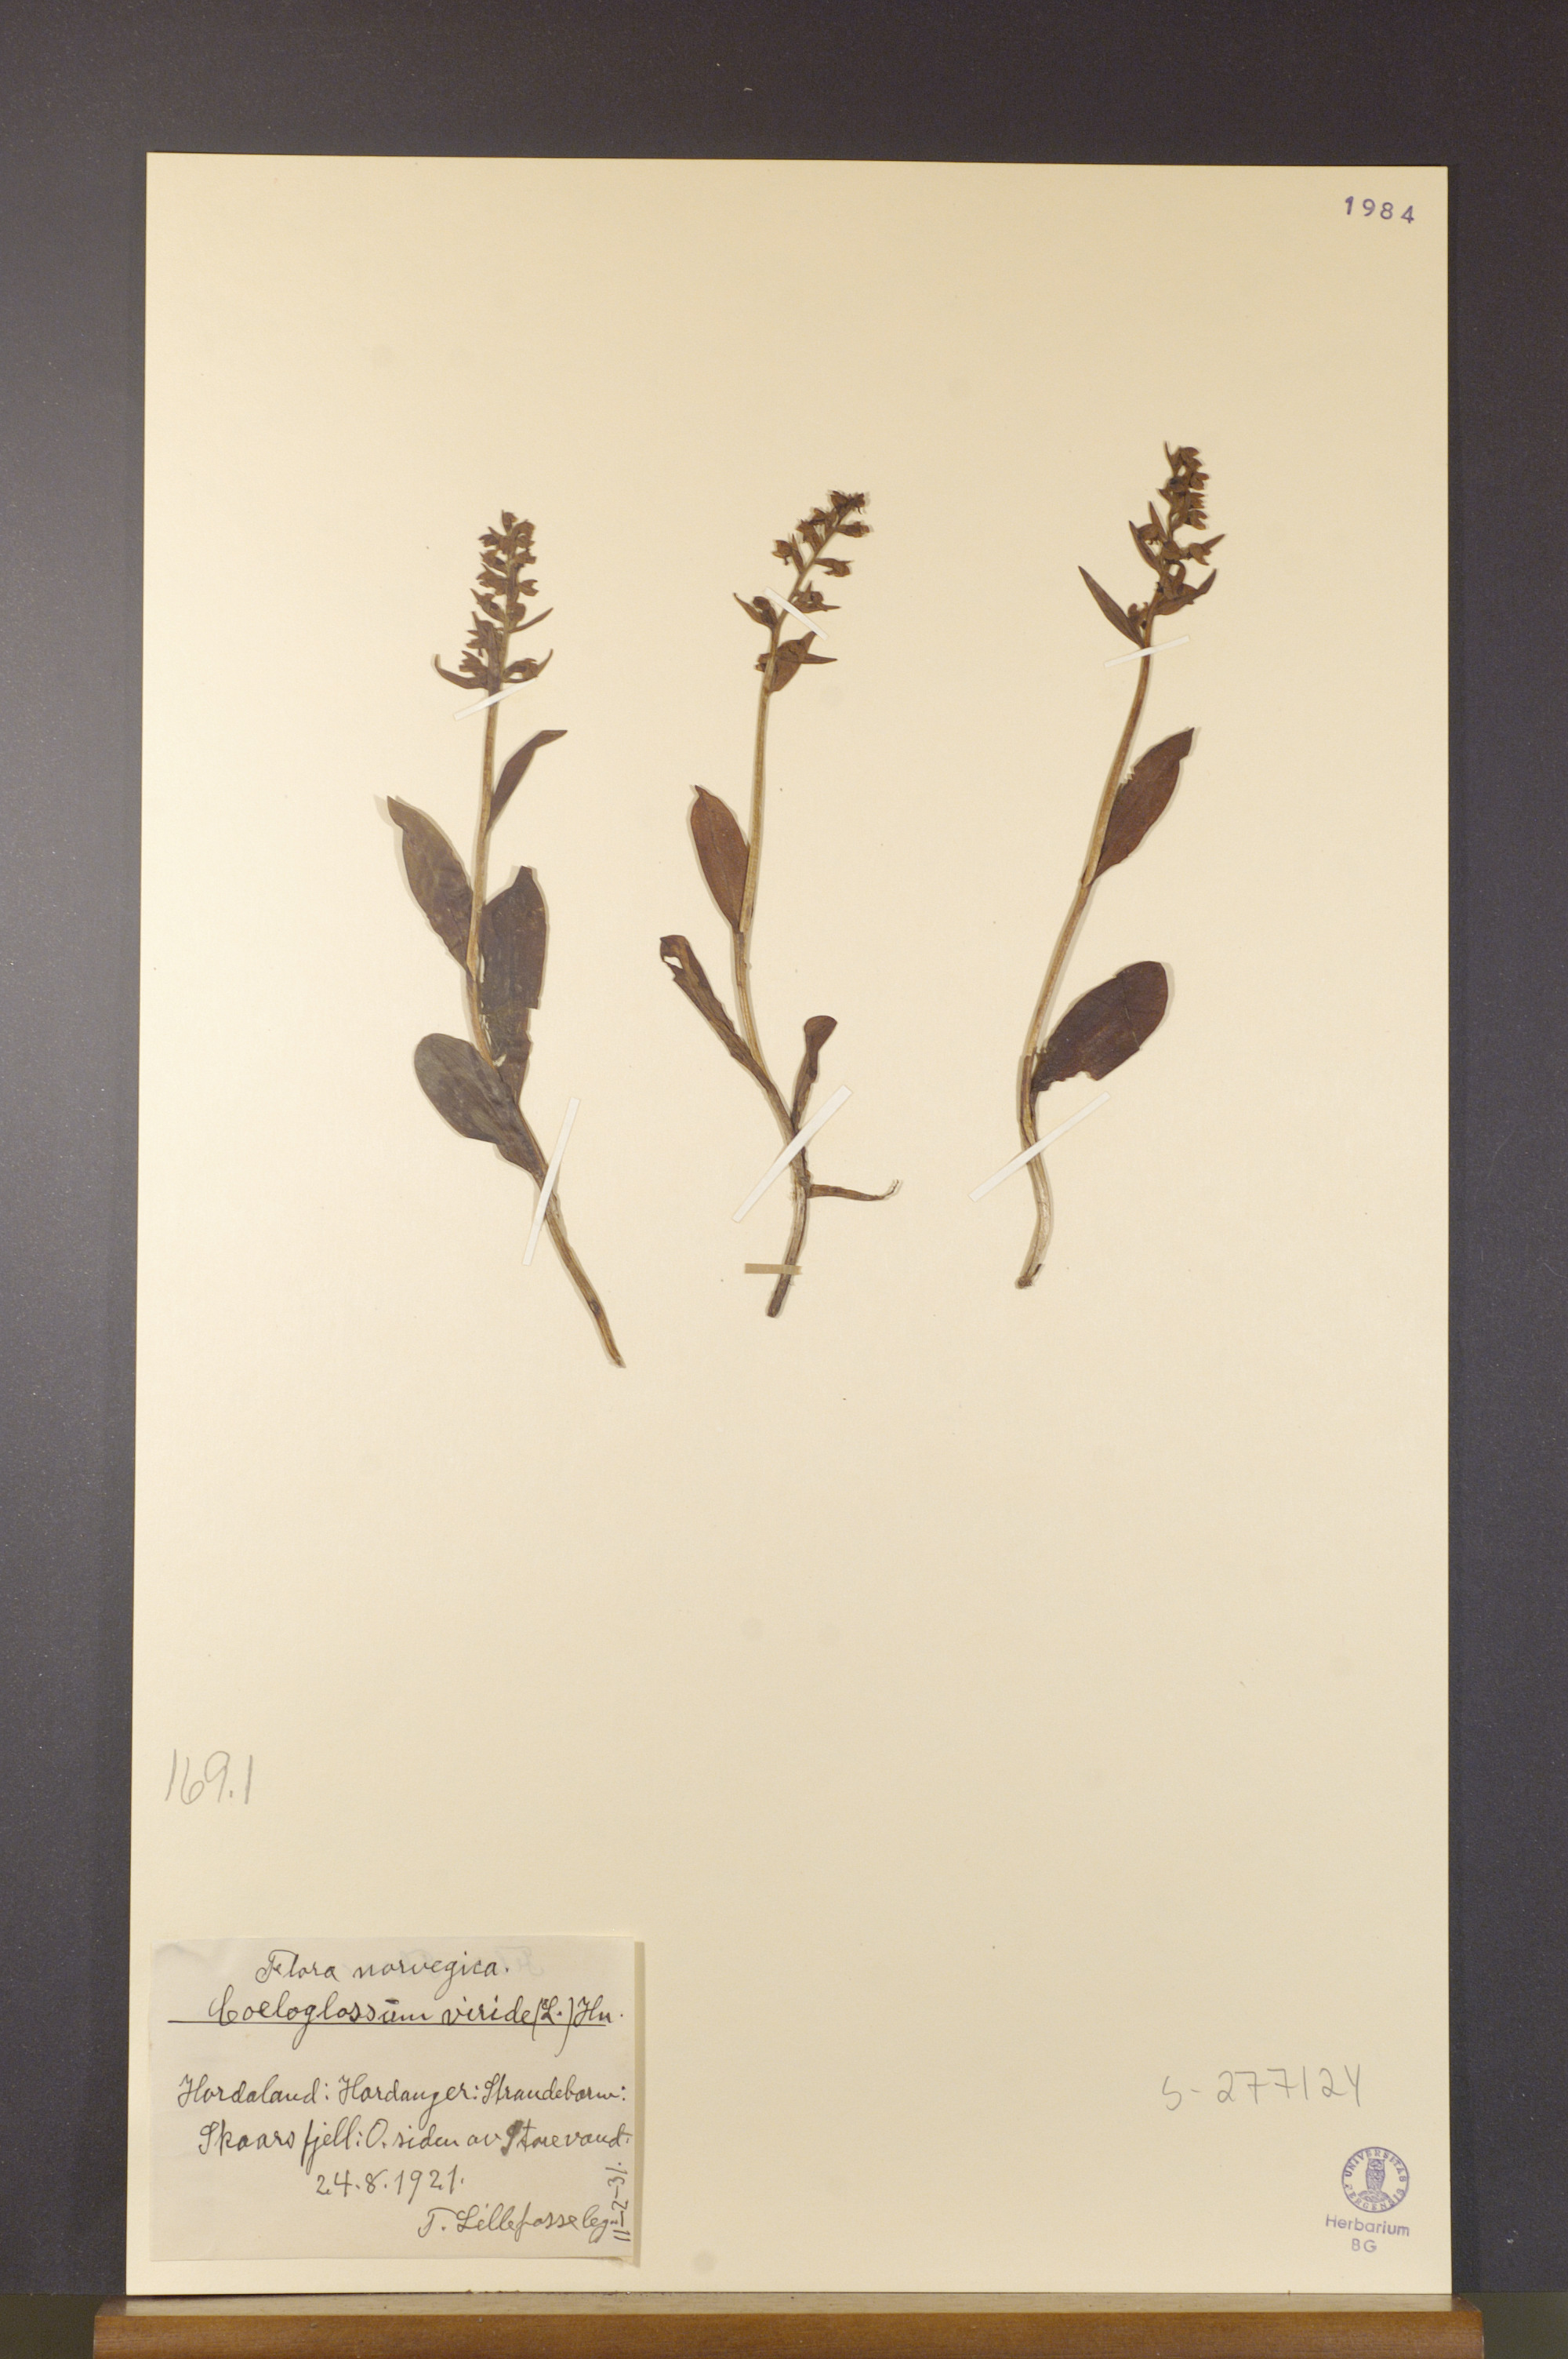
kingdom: Plantae
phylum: Tracheophyta
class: Liliopsida
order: Asparagales
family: Orchidaceae
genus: Dactylorhiza
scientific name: Dactylorhiza viridis
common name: Longbract frog orchid
